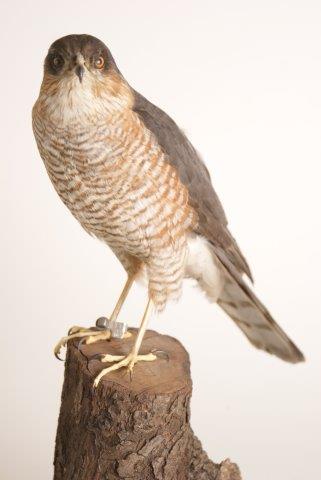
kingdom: Animalia
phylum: Chordata
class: Aves
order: Accipitriformes
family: Accipitridae
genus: Accipiter
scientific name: Accipiter nisus
